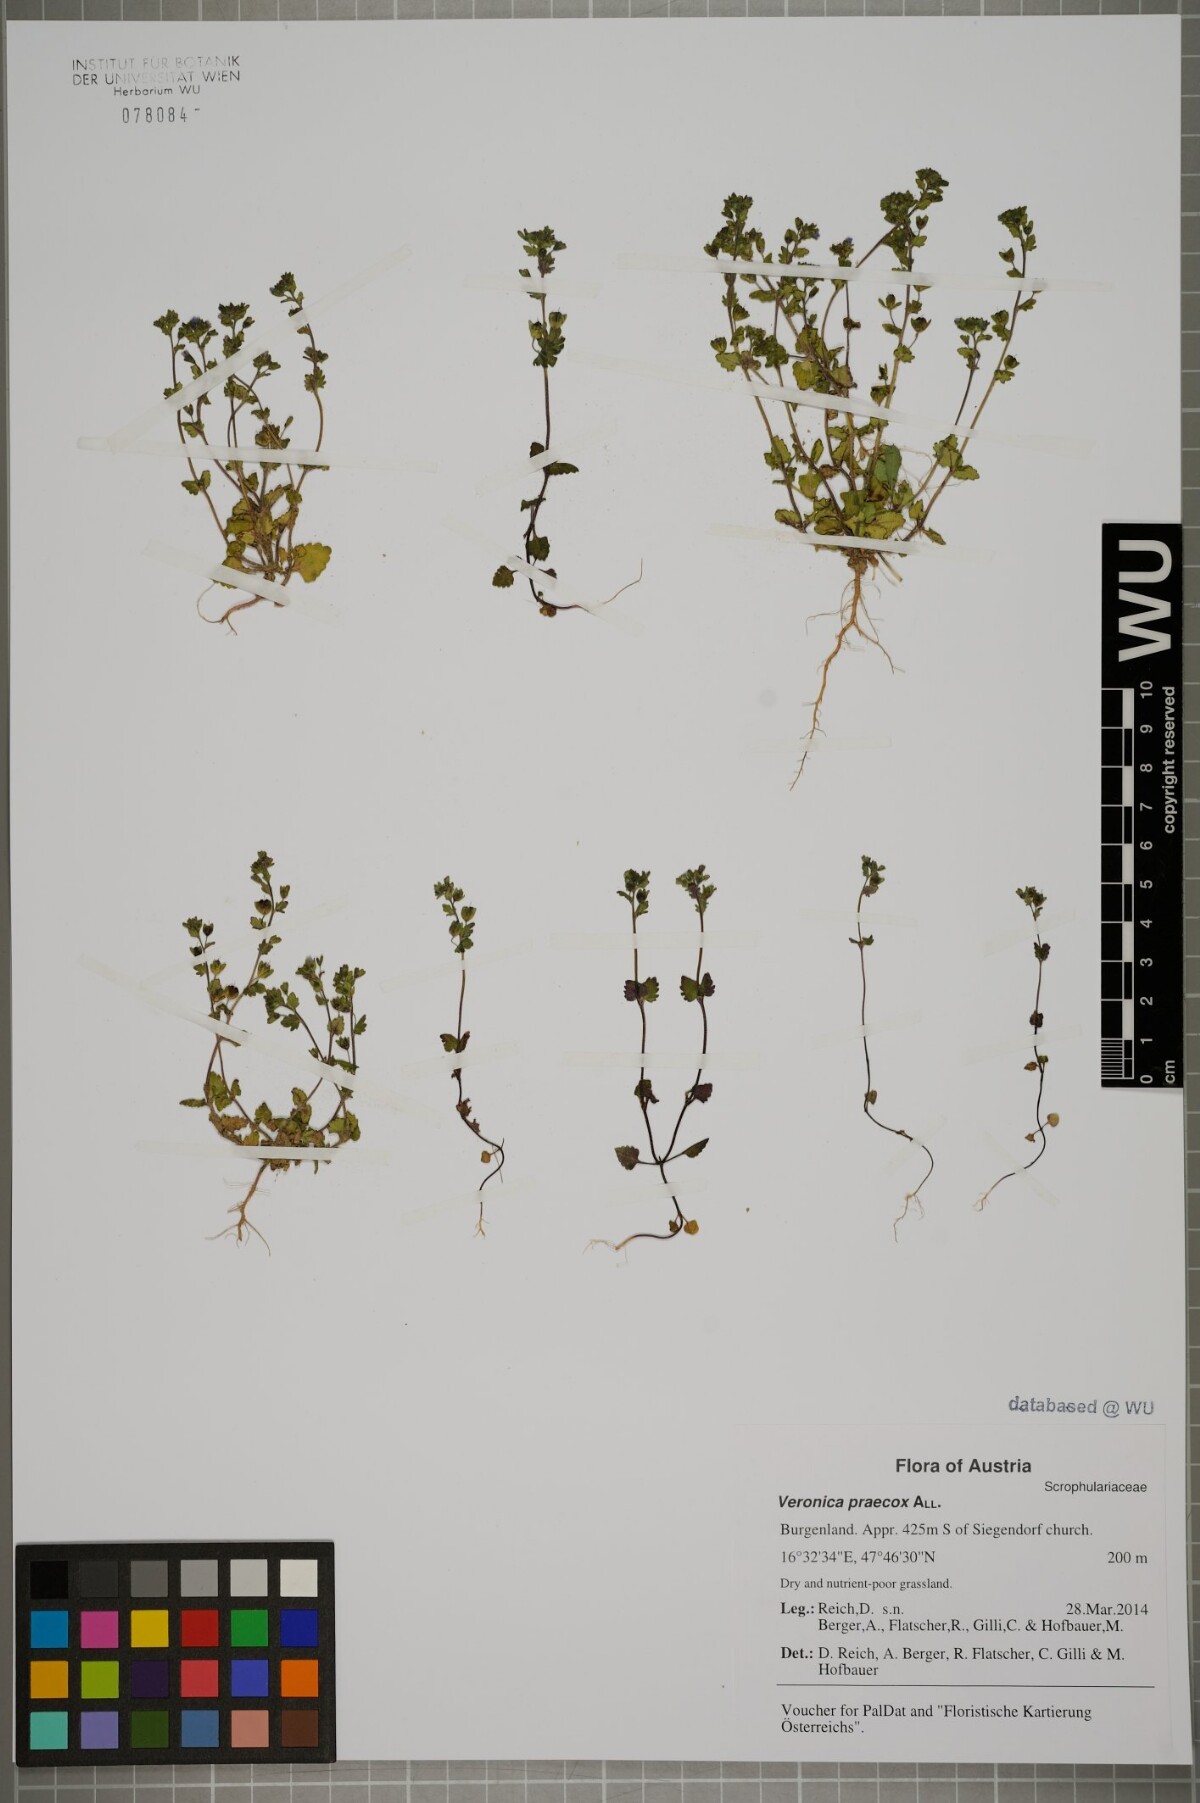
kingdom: Plantae
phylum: Tracheophyta
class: Magnoliopsida
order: Lamiales
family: Plantaginaceae
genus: Veronica
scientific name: Veronica praecox
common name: Breckland speedwell
